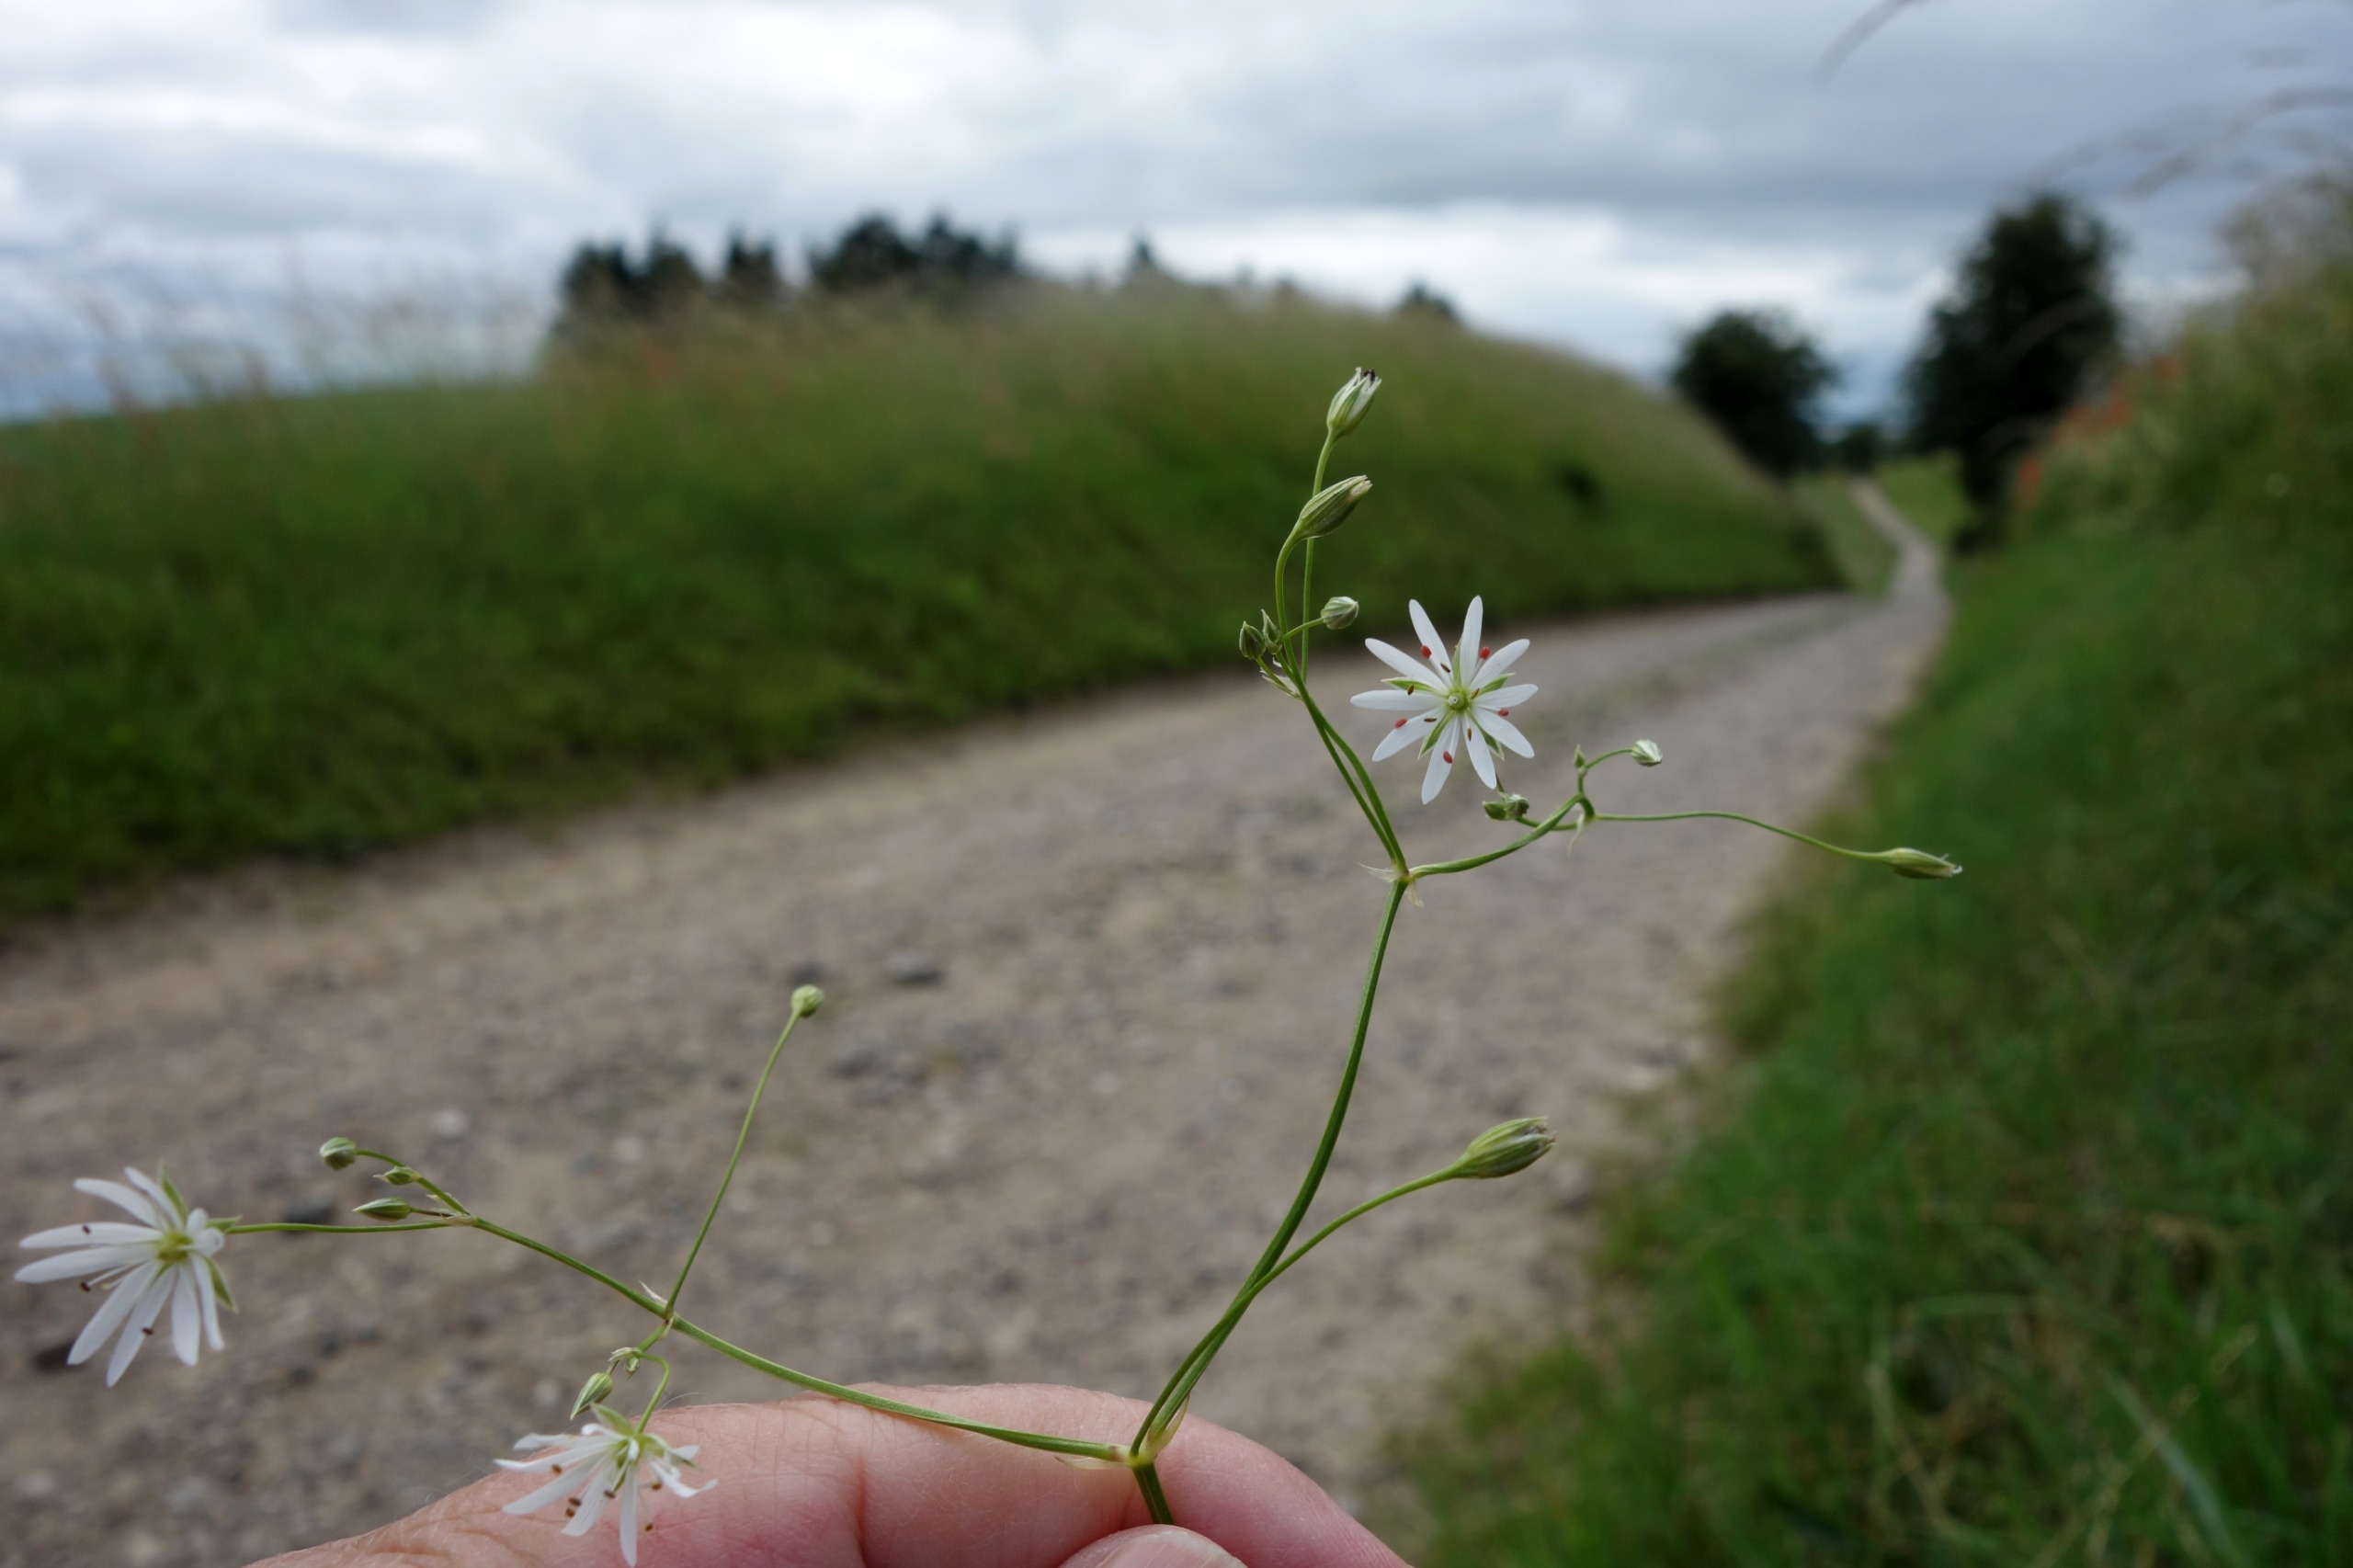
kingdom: Plantae
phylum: Tracheophyta
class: Magnoliopsida
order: Caryophyllales
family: Caryophyllaceae
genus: Stellaria
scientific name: Stellaria graminea
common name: Græsbladet fladstjerne
